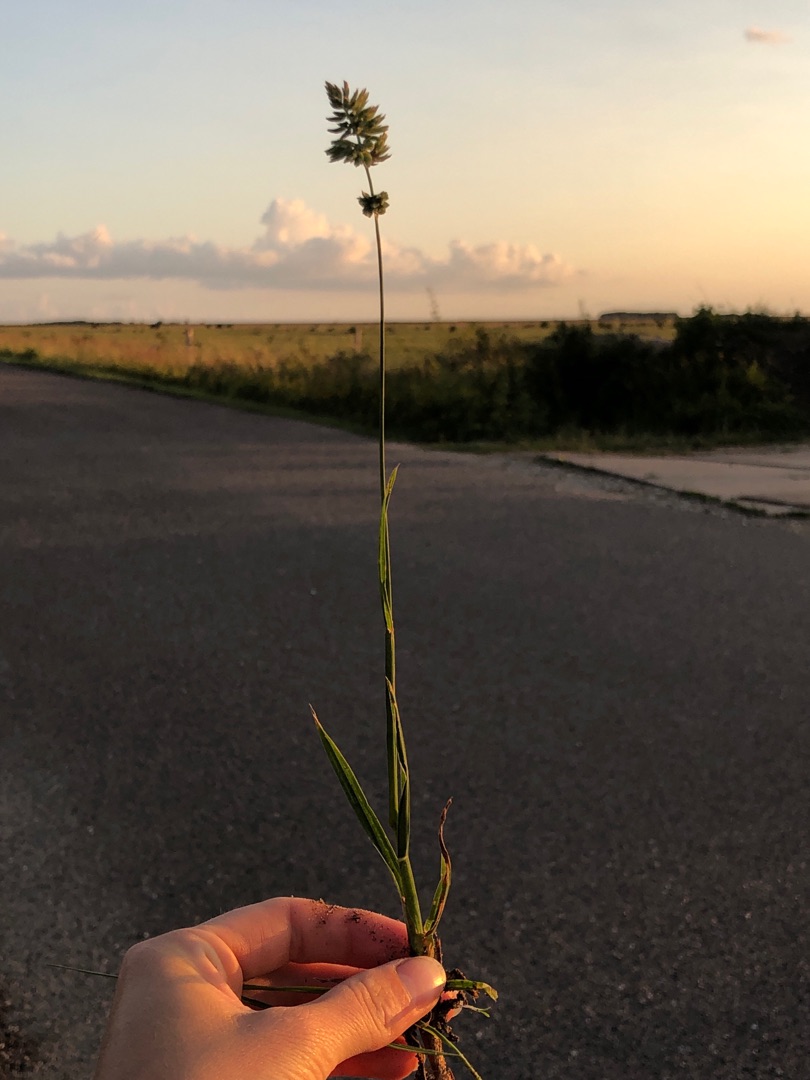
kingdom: Plantae
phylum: Tracheophyta
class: Liliopsida
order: Poales
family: Poaceae
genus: Dactylis
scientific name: Dactylis glomerata
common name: Almindelig hundegræs
